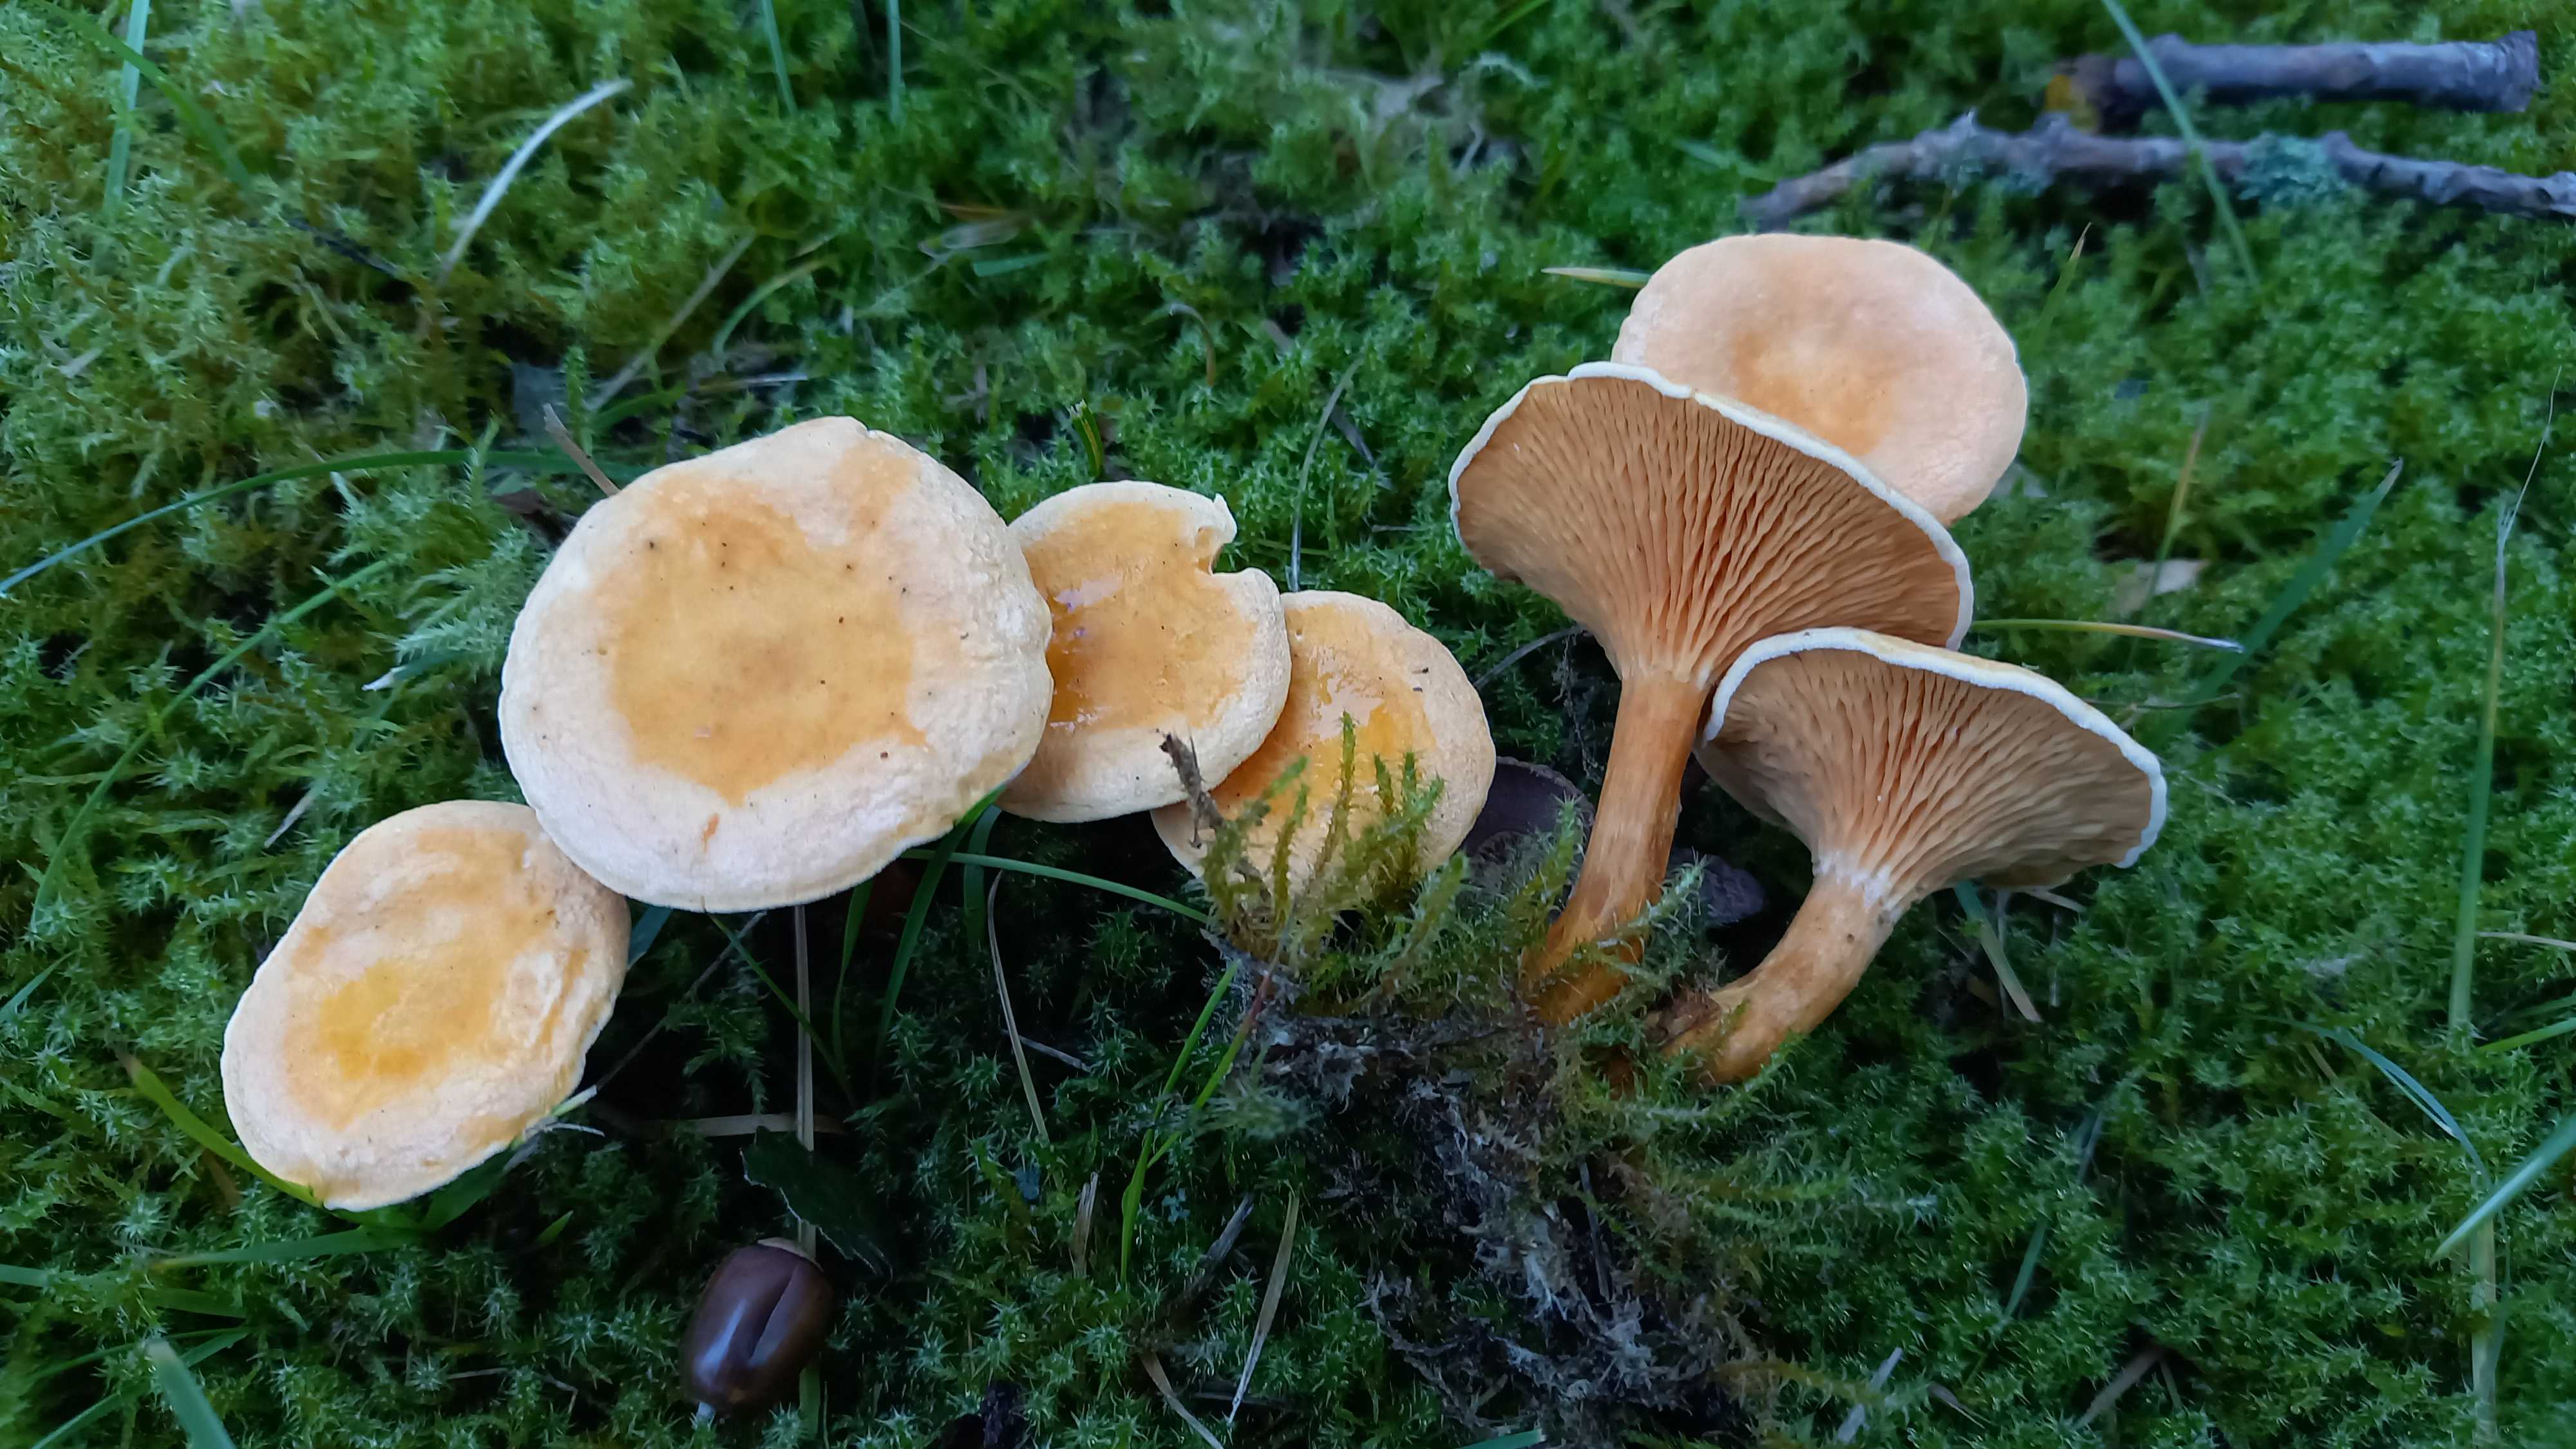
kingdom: Fungi
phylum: Basidiomycota
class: Agaricomycetes
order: Boletales
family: Hygrophoropsidaceae
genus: Hygrophoropsis
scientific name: Hygrophoropsis aurantiaca
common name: almindelig orangekantarel
